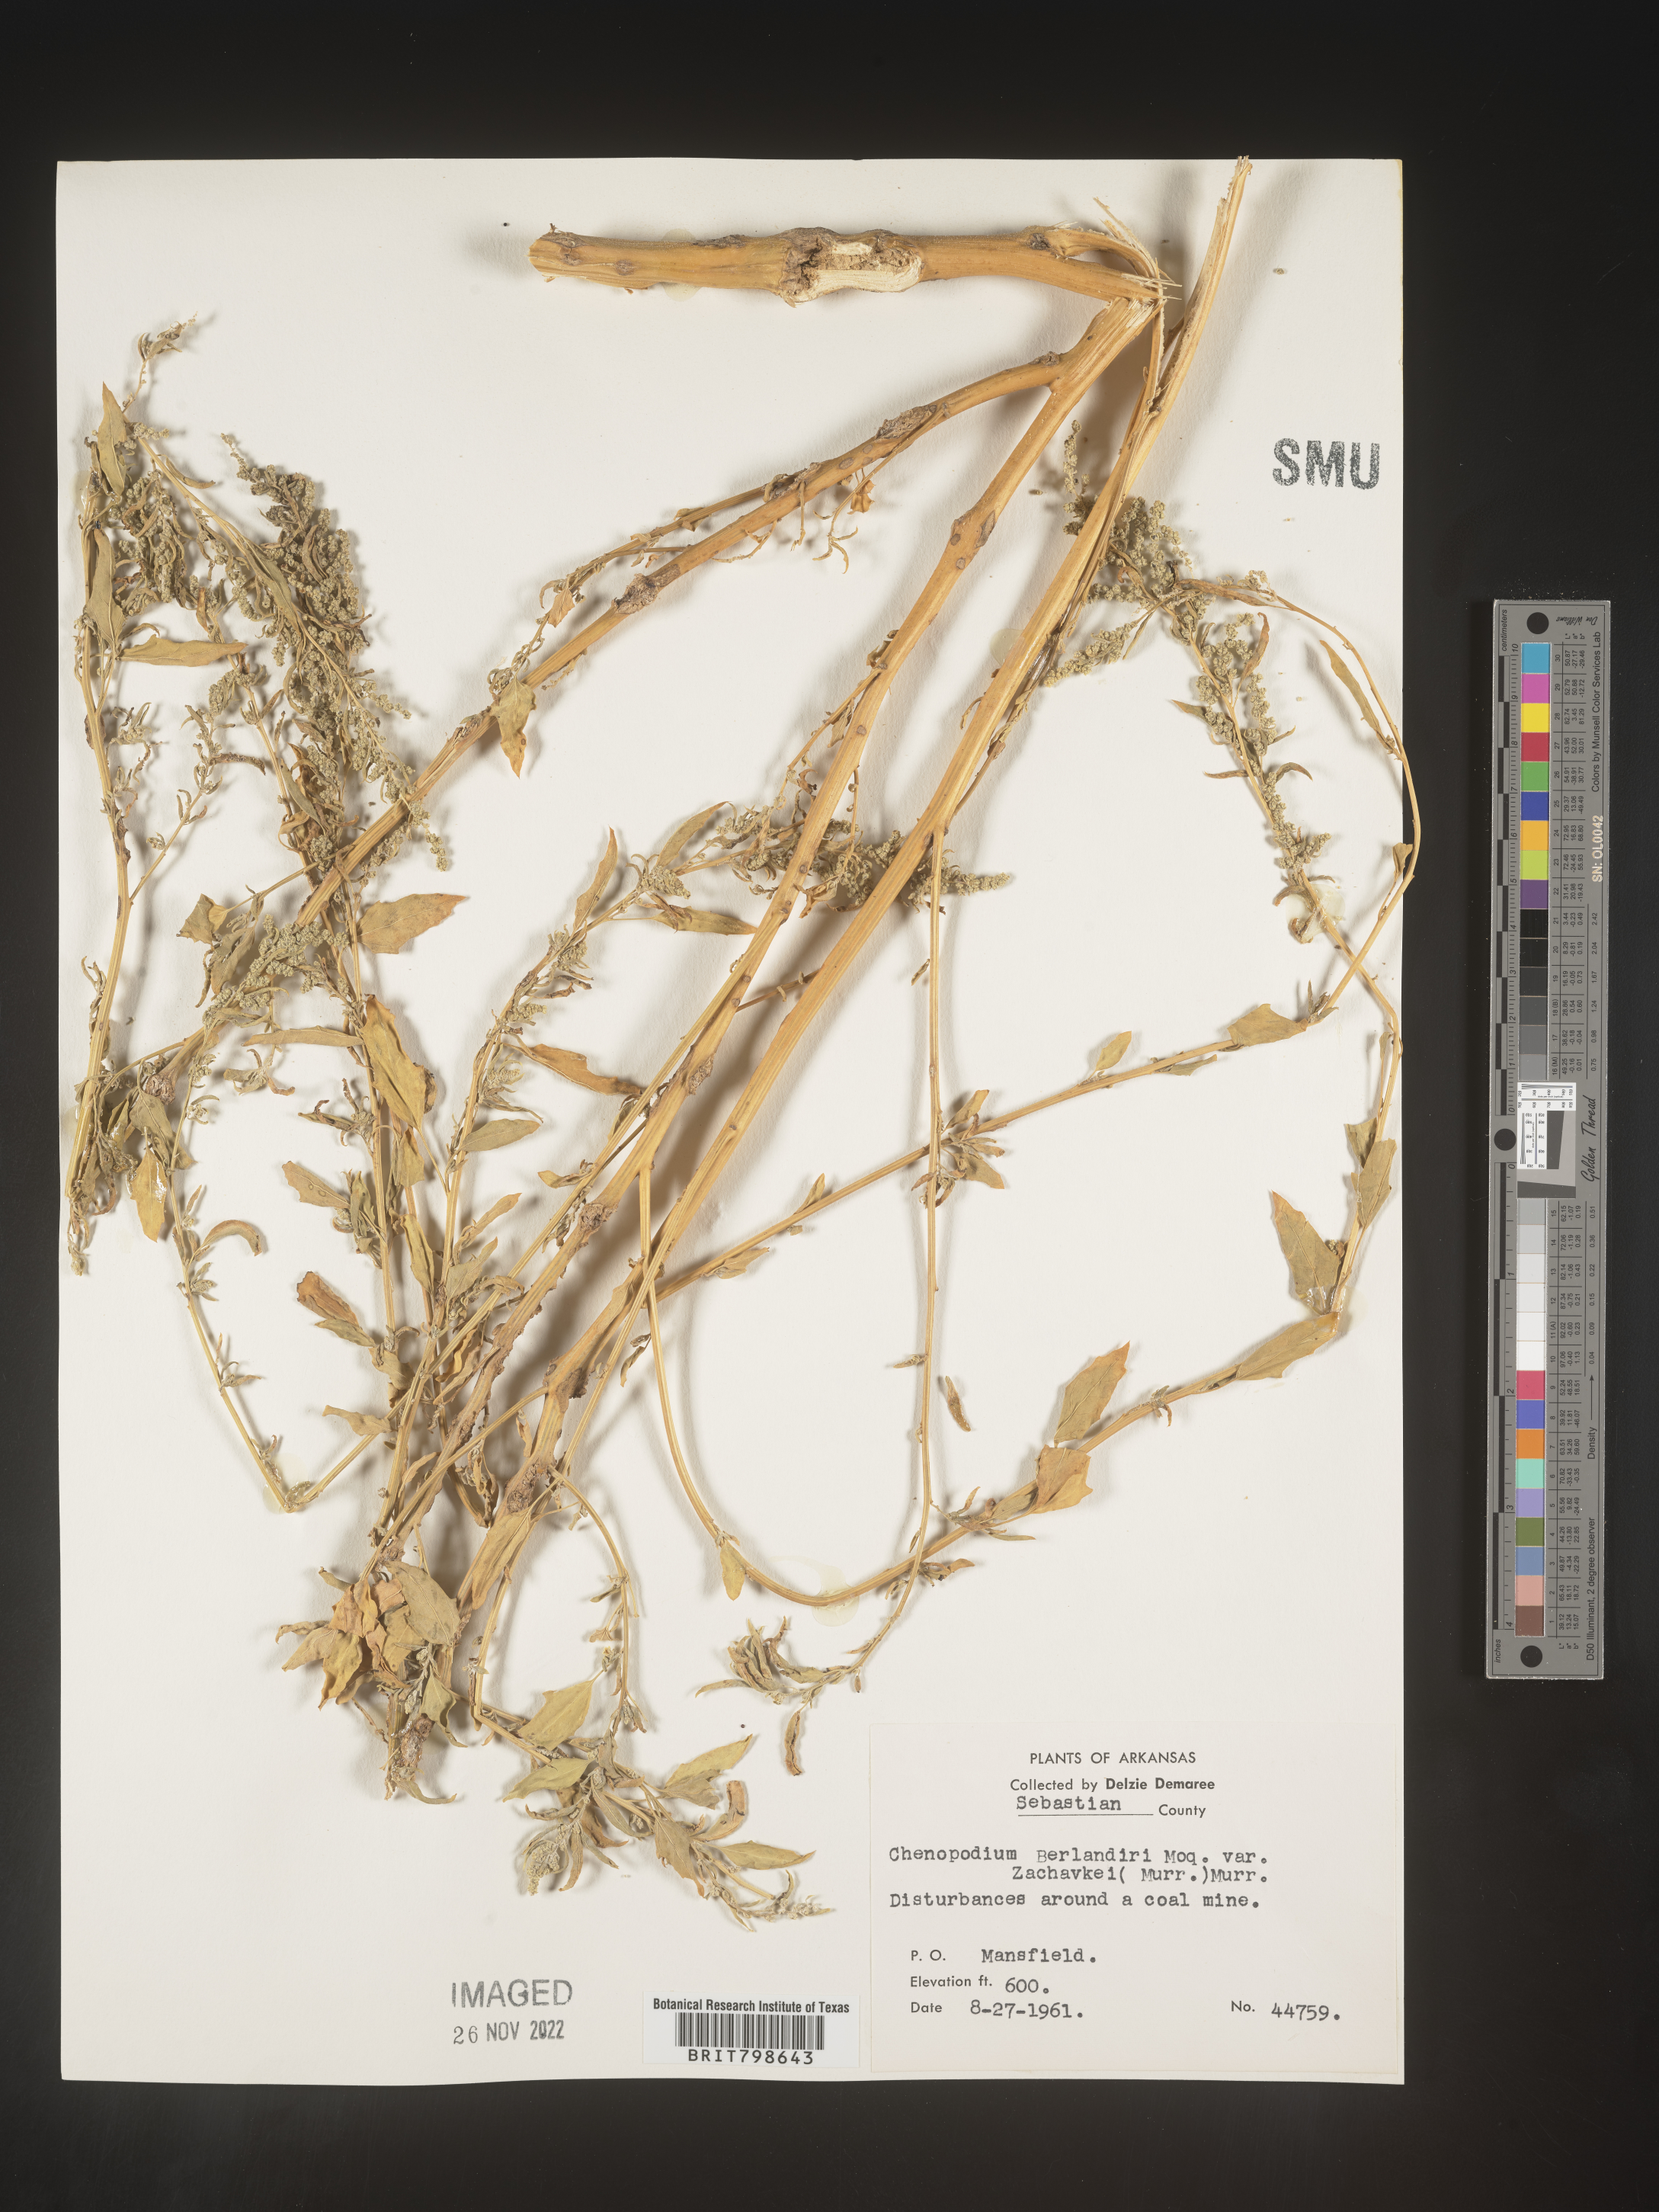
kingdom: Plantae
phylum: Tracheophyta
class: Magnoliopsida
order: Caryophyllales
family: Amaranthaceae
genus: Chenopodium
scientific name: Chenopodium berlandieri
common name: Pit-seed goosefoot
